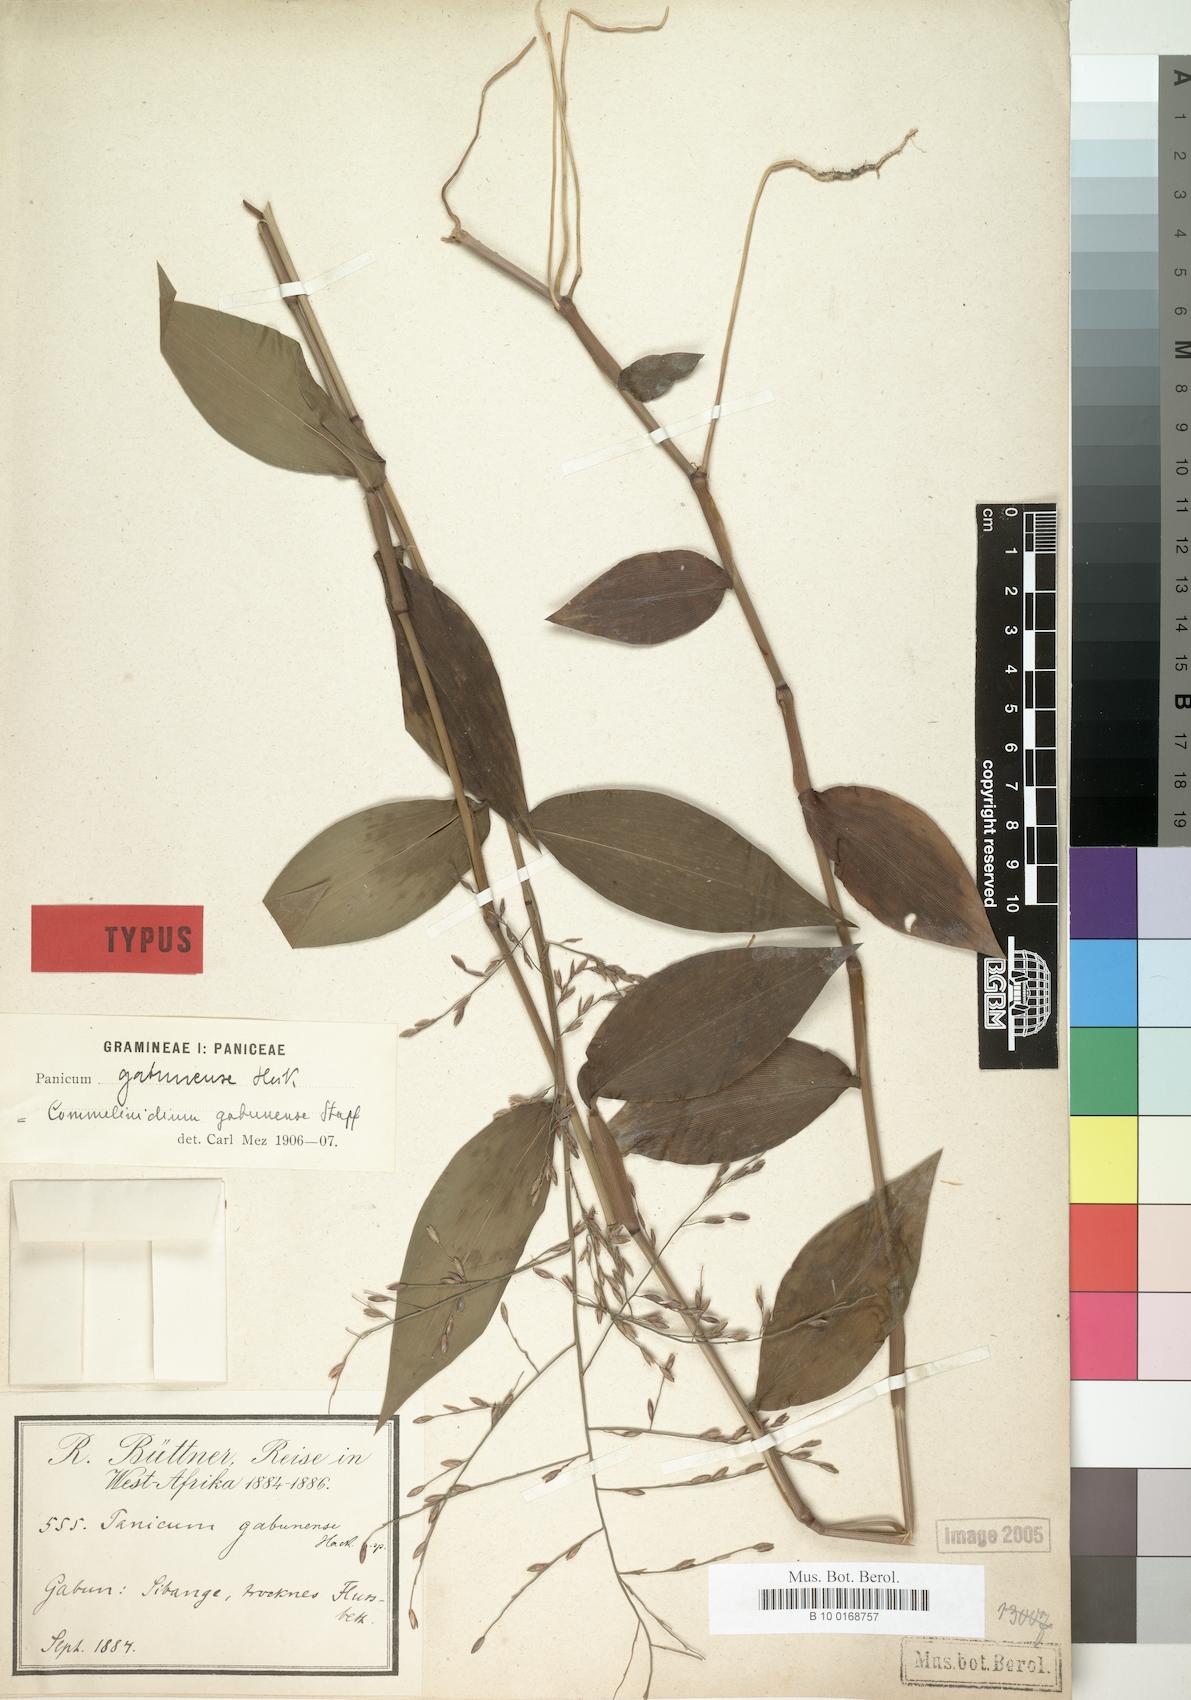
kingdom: Plantae
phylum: Tracheophyta
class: Liliopsida
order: Poales
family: Poaceae
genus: Panicum
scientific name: Panicum gabunense
